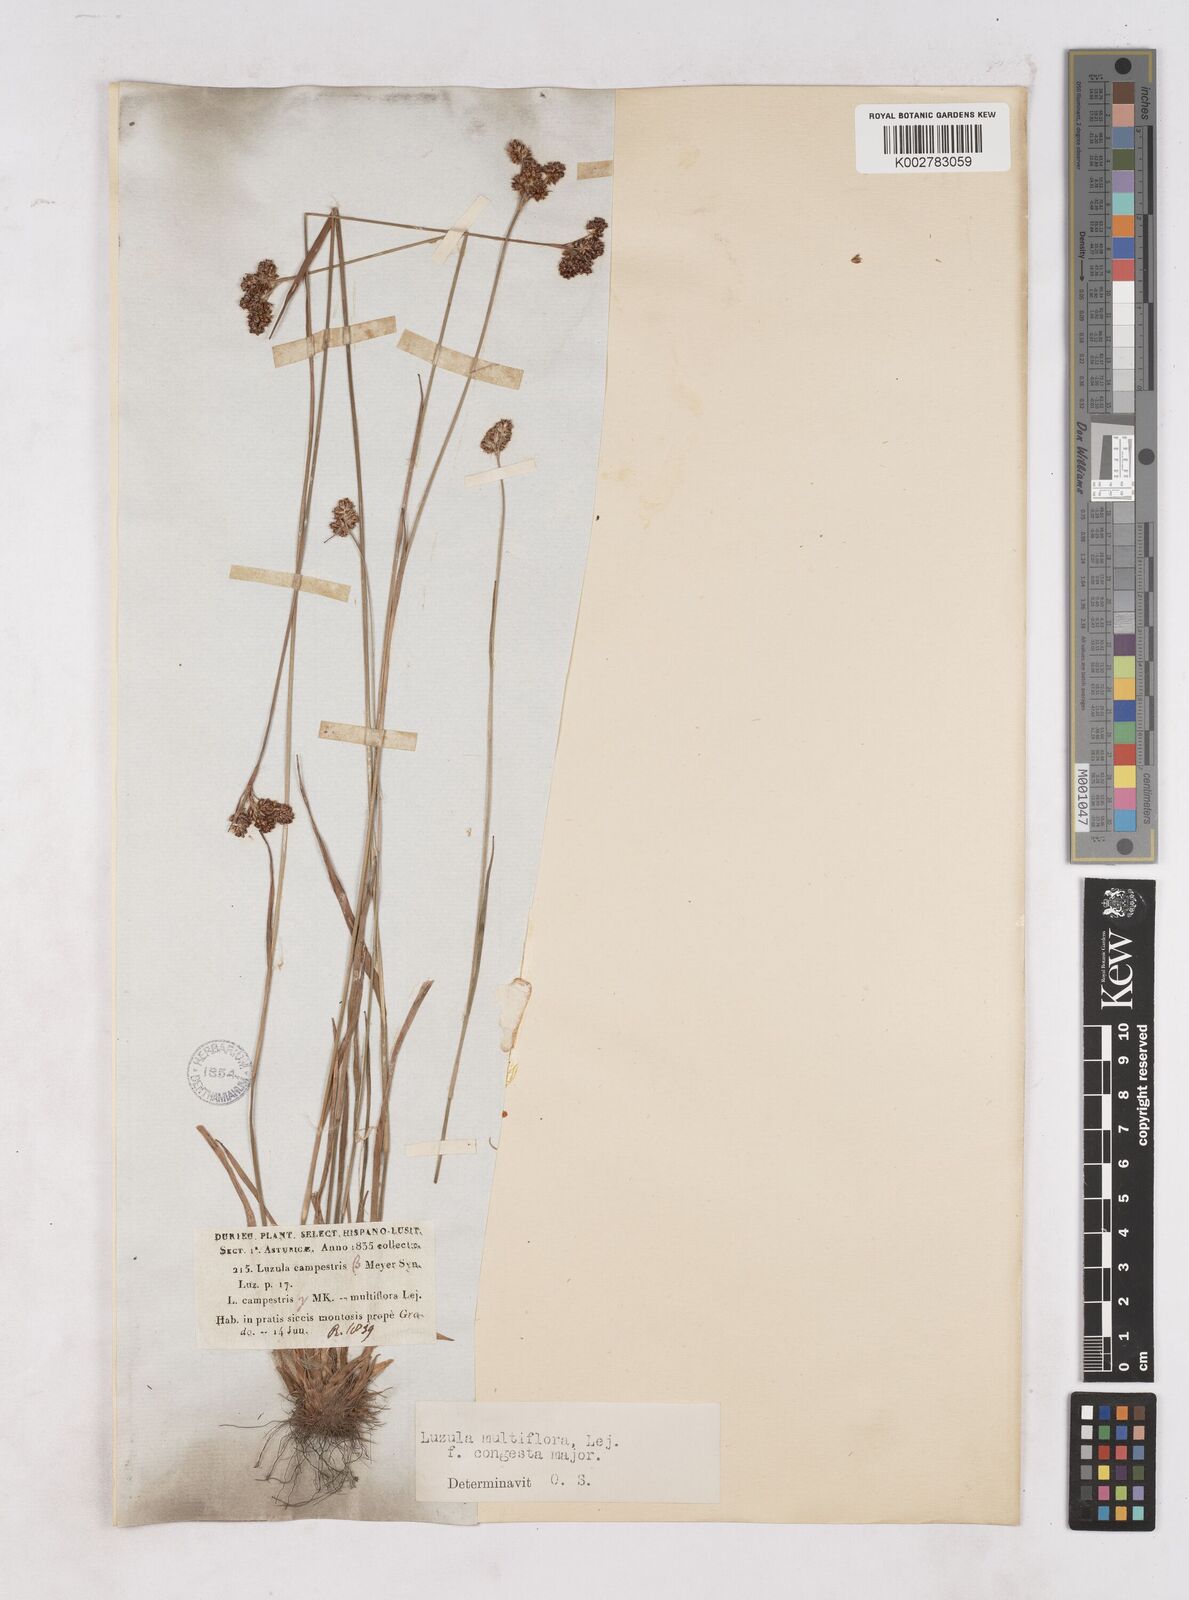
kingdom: Plantae
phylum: Tracheophyta
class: Liliopsida
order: Poales
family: Juncaceae
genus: Luzula
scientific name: Luzula campestris
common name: Field wood-rush
